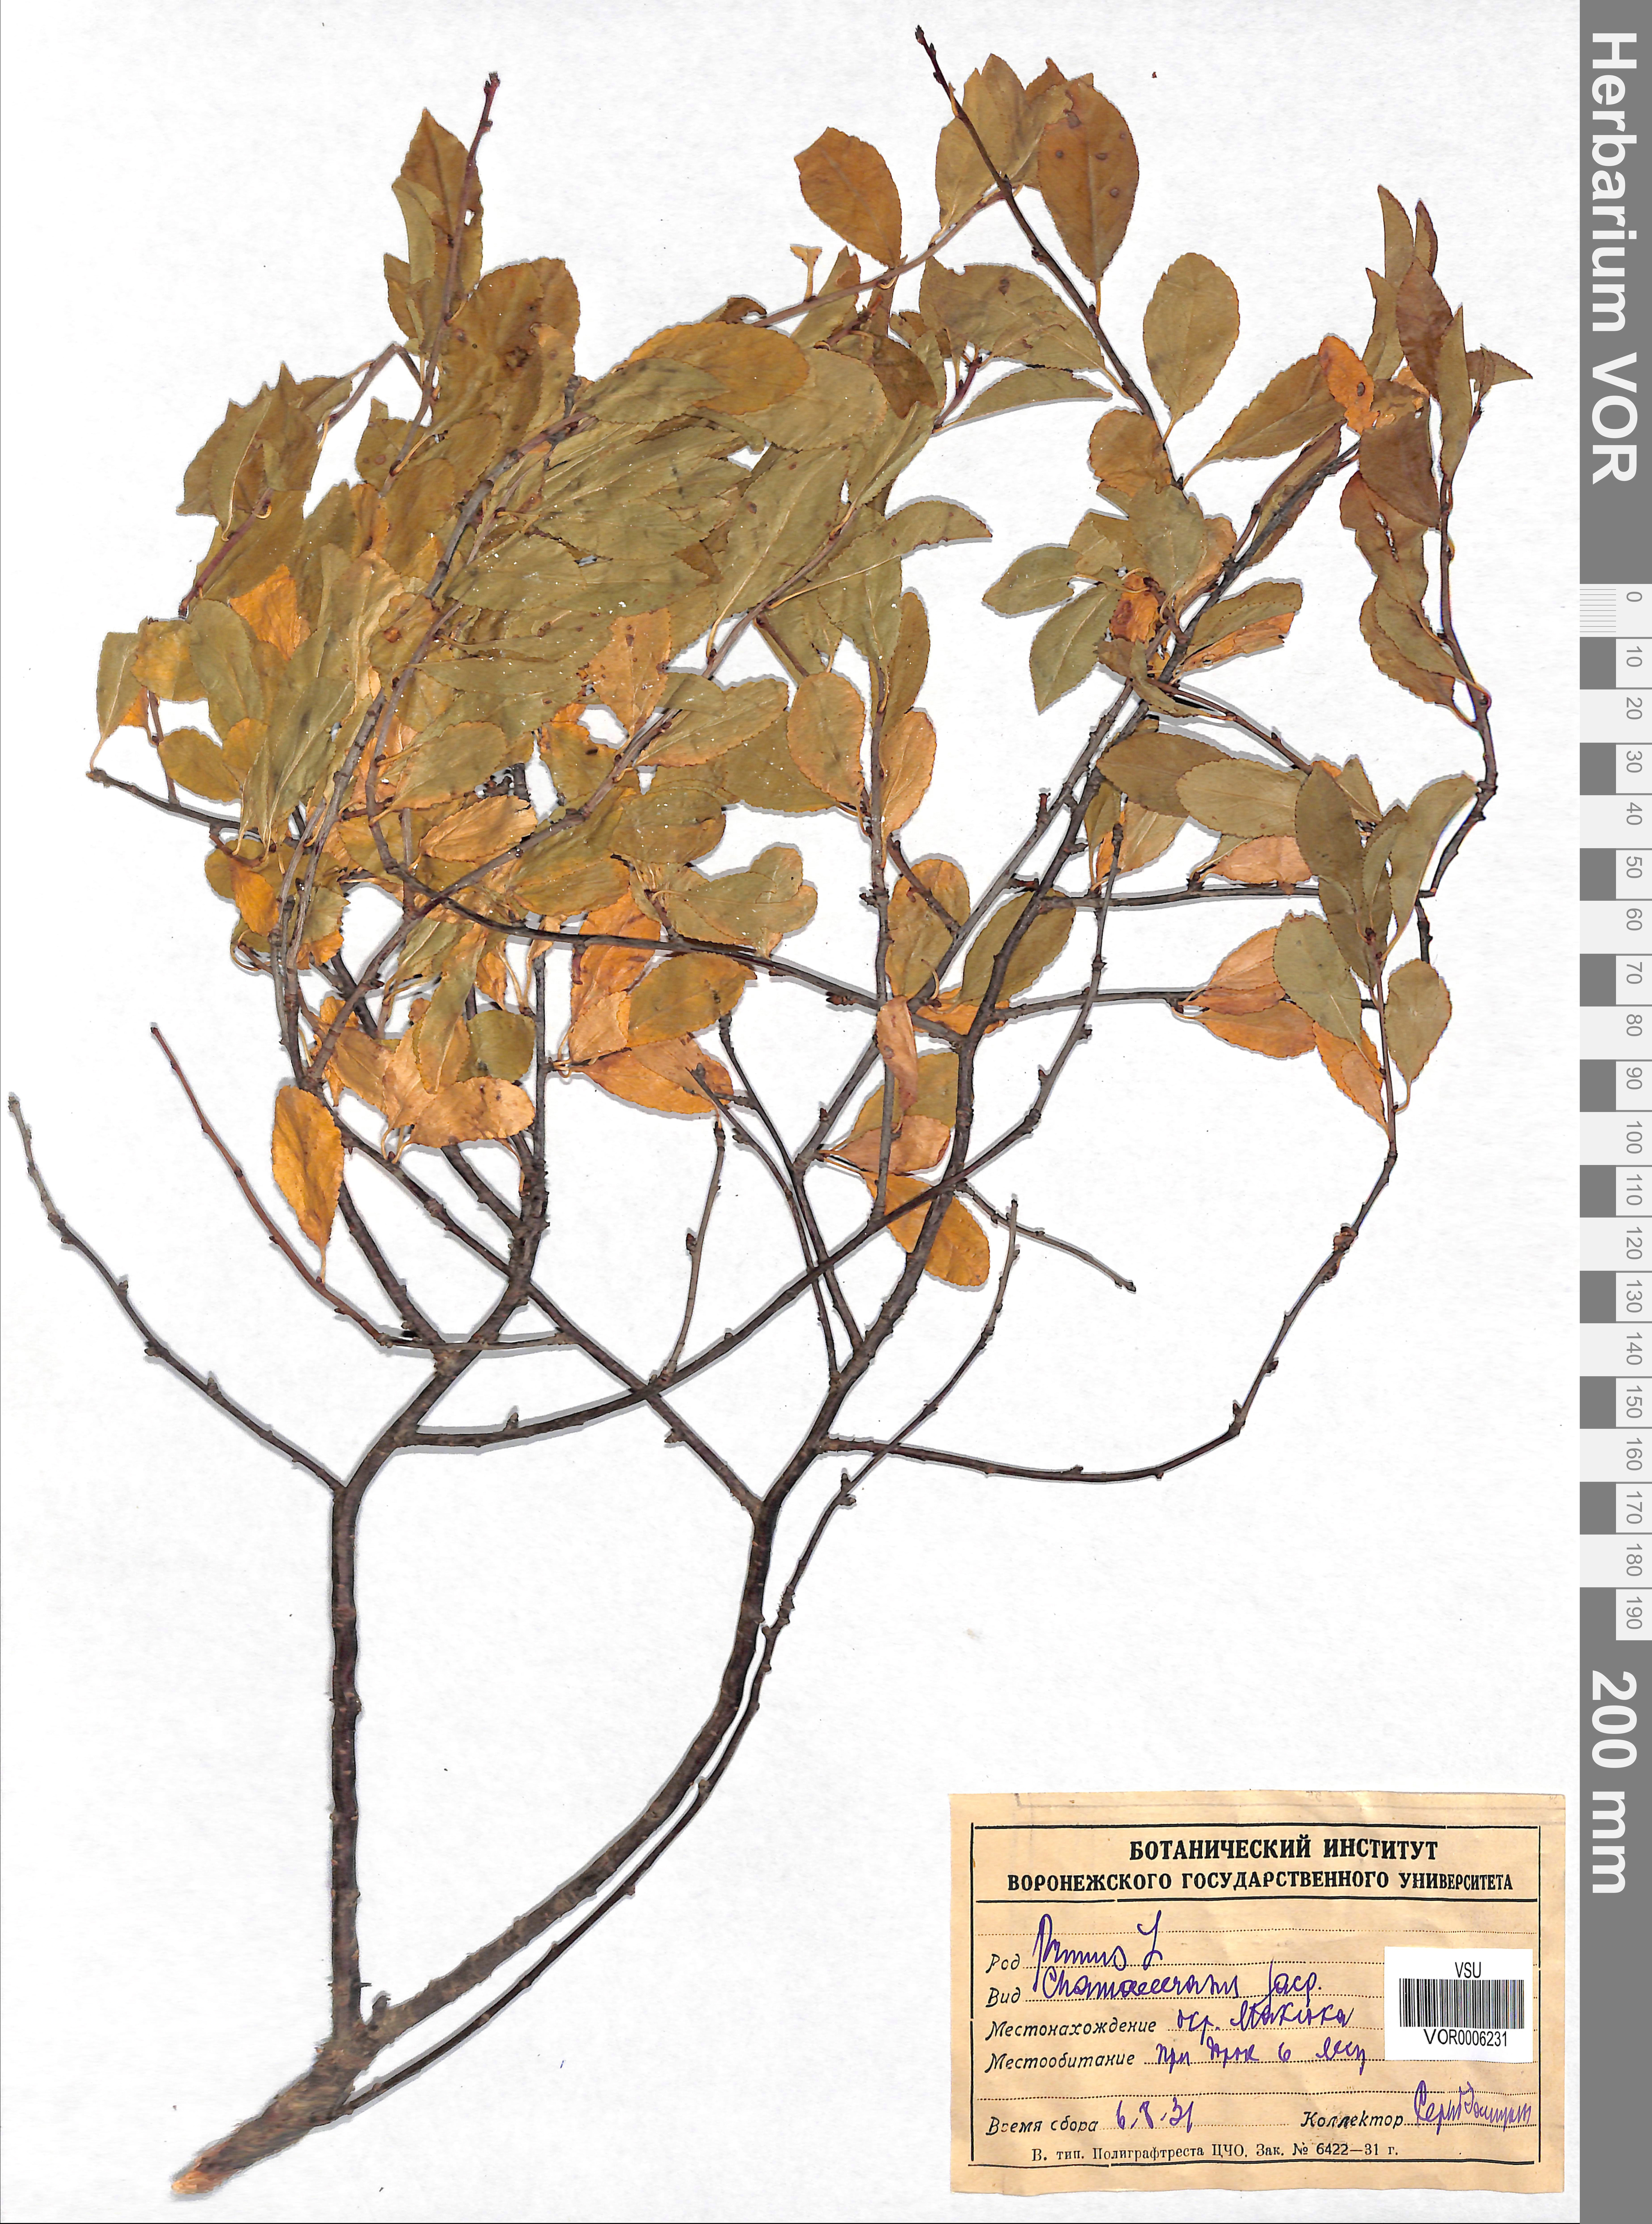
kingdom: Plantae
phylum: Tracheophyta
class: Magnoliopsida
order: Rosales
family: Rosaceae
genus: Prunus
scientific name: Prunus fruticosa
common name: European dwarf cherry
